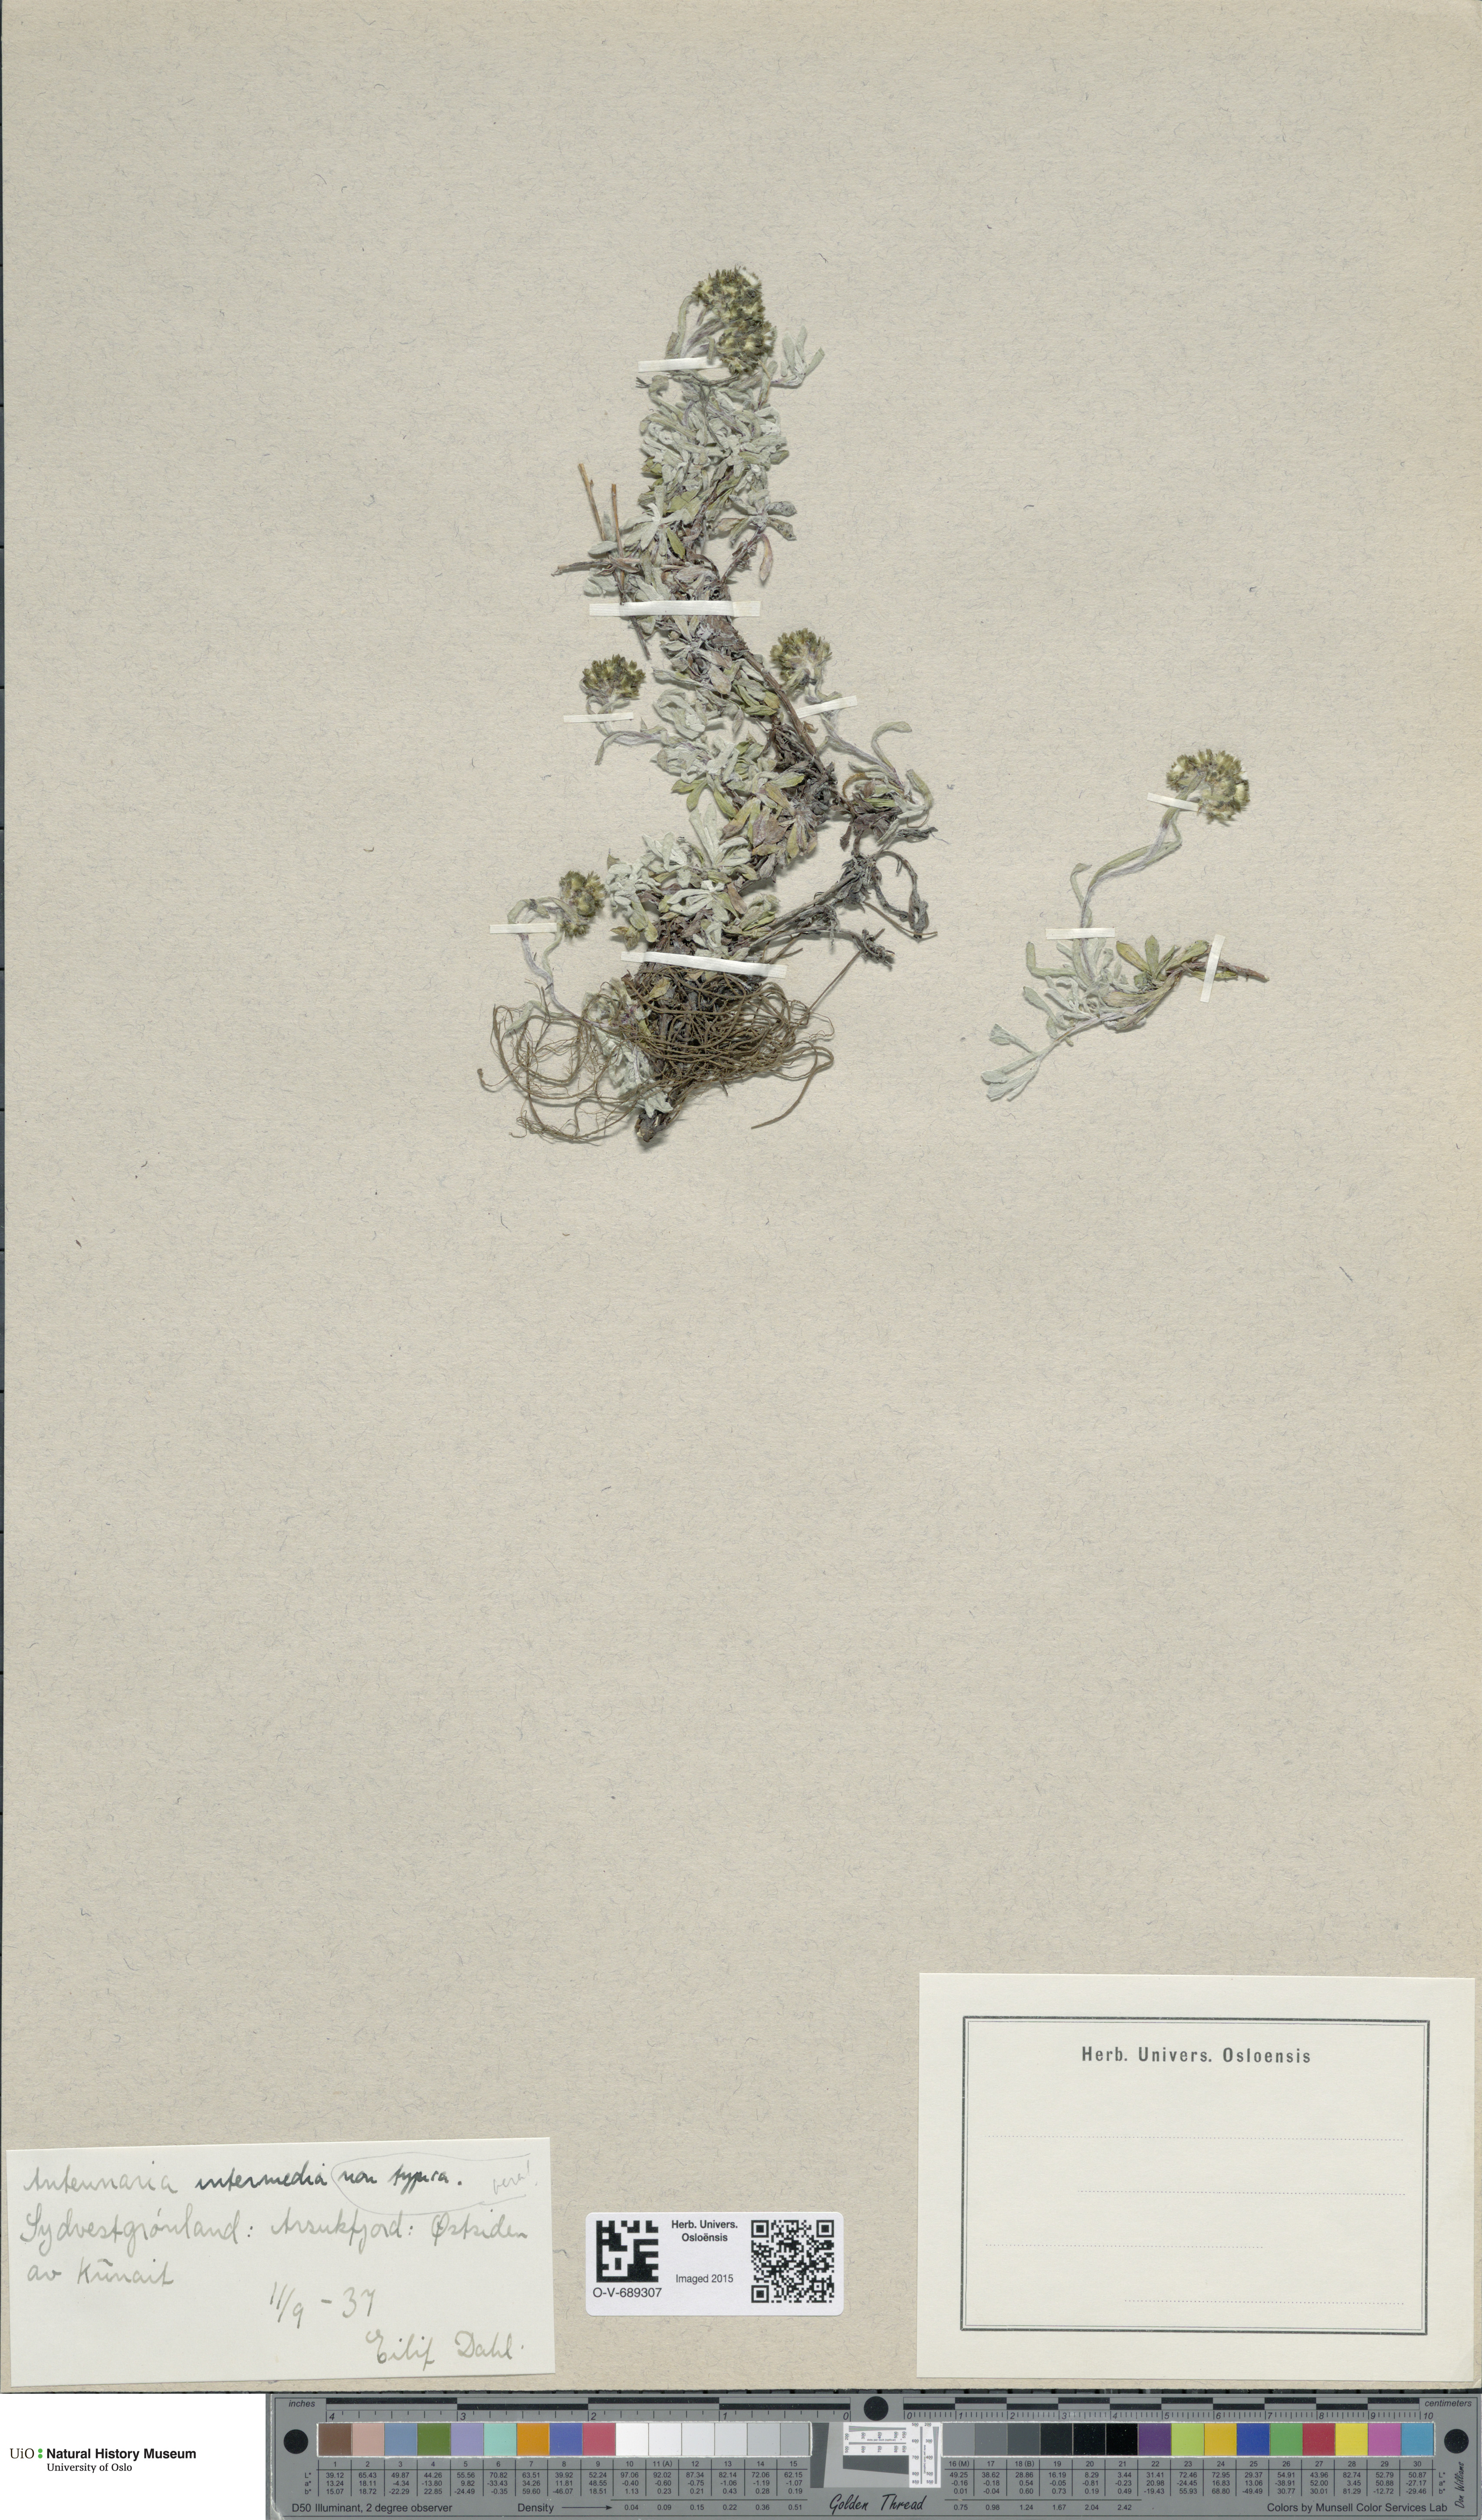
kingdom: Plantae
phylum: Tracheophyta
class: Magnoliopsida
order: Asterales
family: Asteraceae
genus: Antennaria
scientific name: Antennaria rosea
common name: Rosy pussytoes
